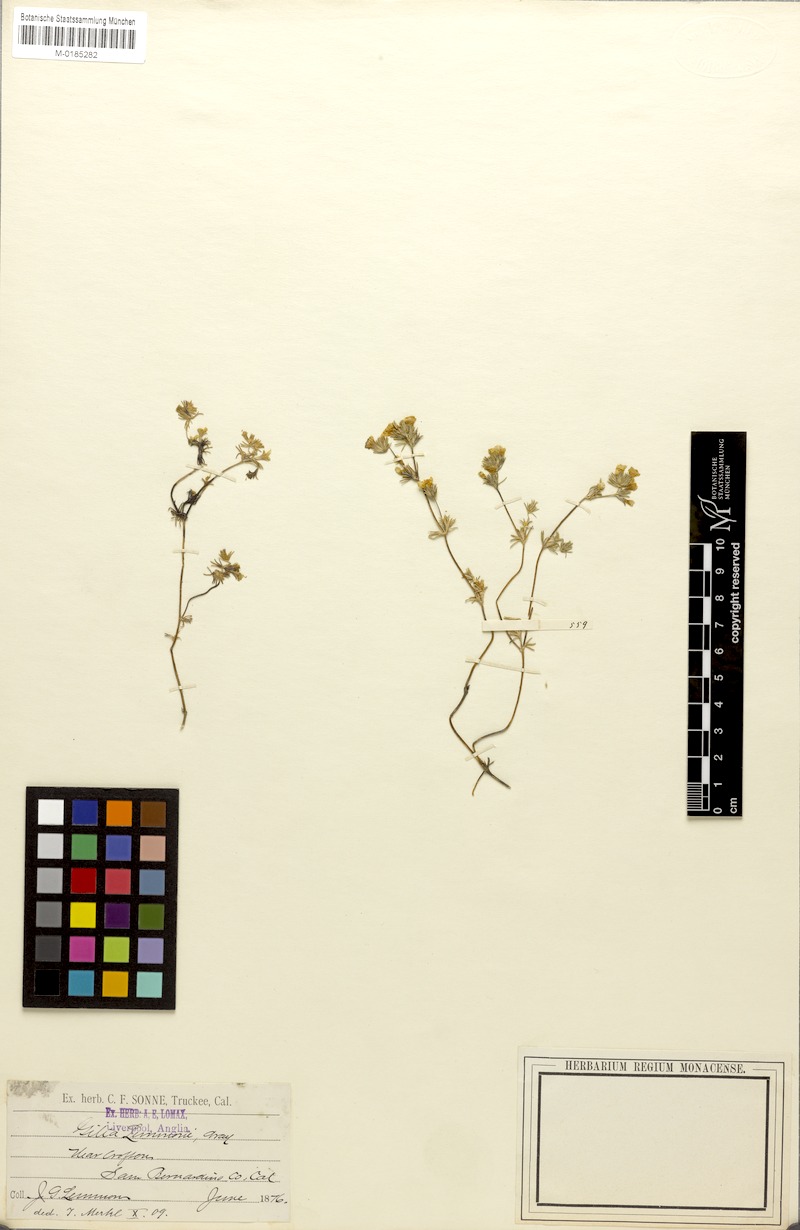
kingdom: Plantae
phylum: Tracheophyta
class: Magnoliopsida
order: Ericales
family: Polemoniaceae
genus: Leptosiphon
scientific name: Leptosiphon lemmonii
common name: Lemmon's linanthus
